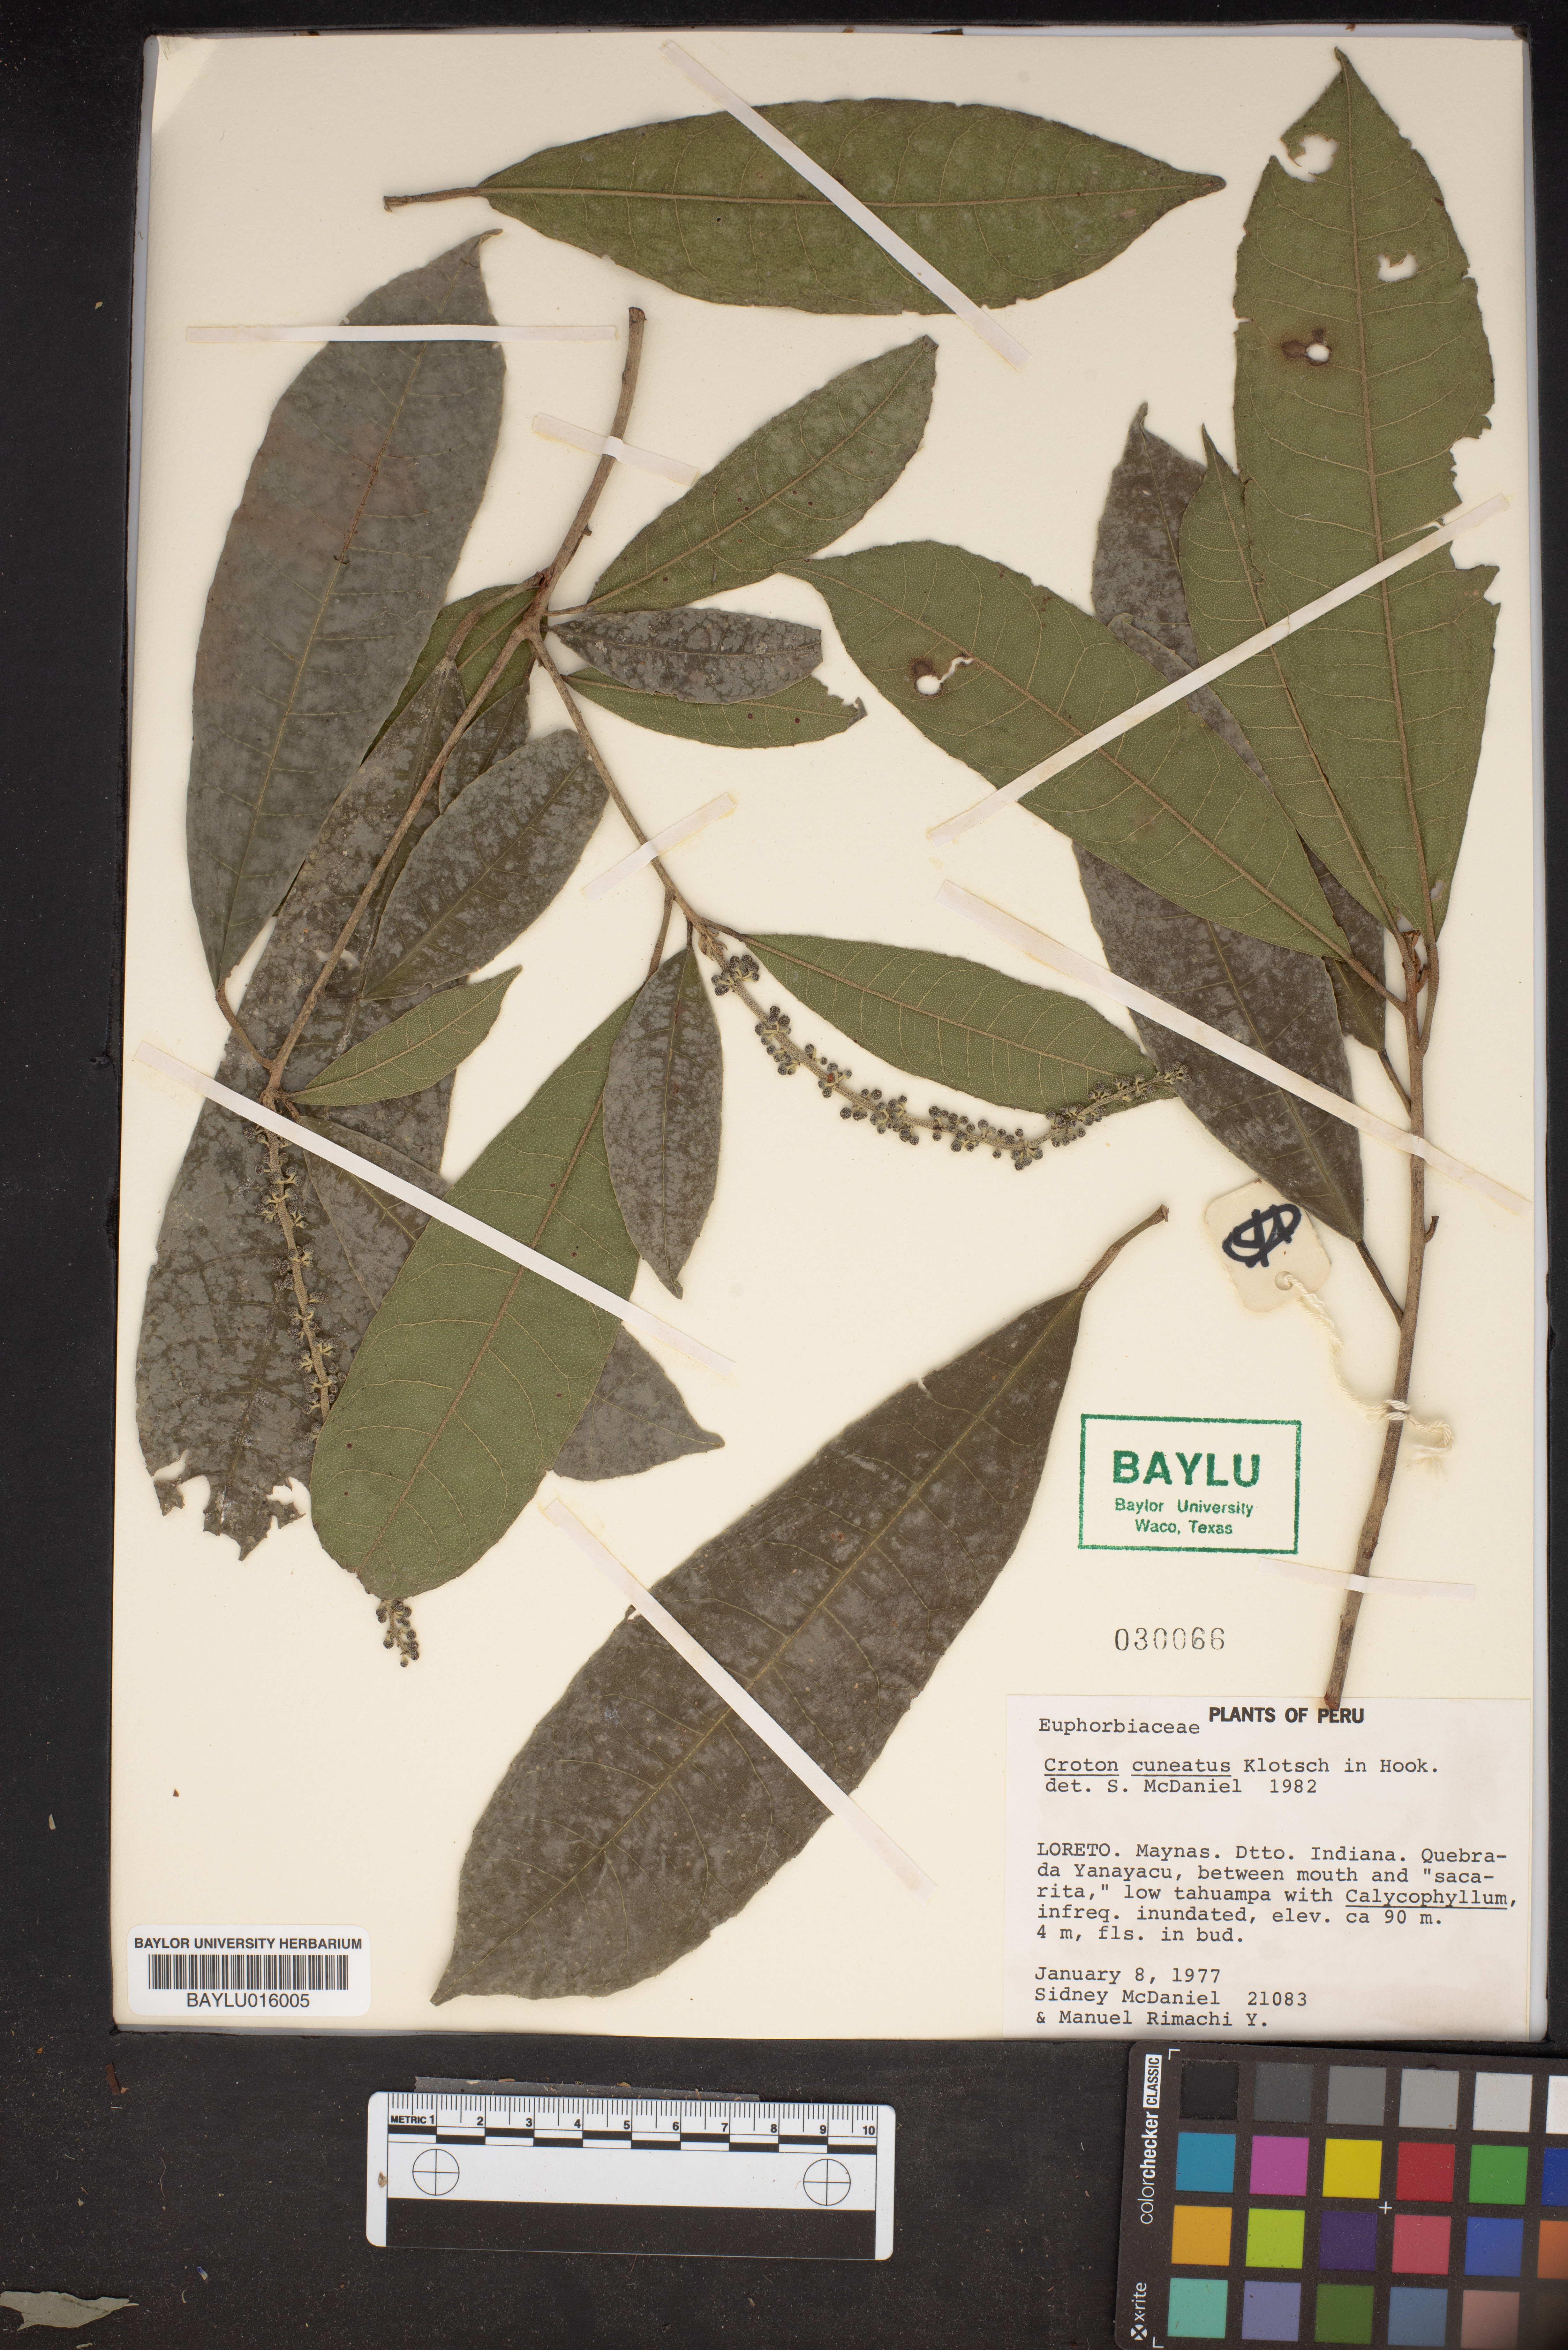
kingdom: Plantae
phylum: Tracheophyta
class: Magnoliopsida
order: Malpighiales
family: Euphorbiaceae
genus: Croton
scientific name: Croton cuneatus
